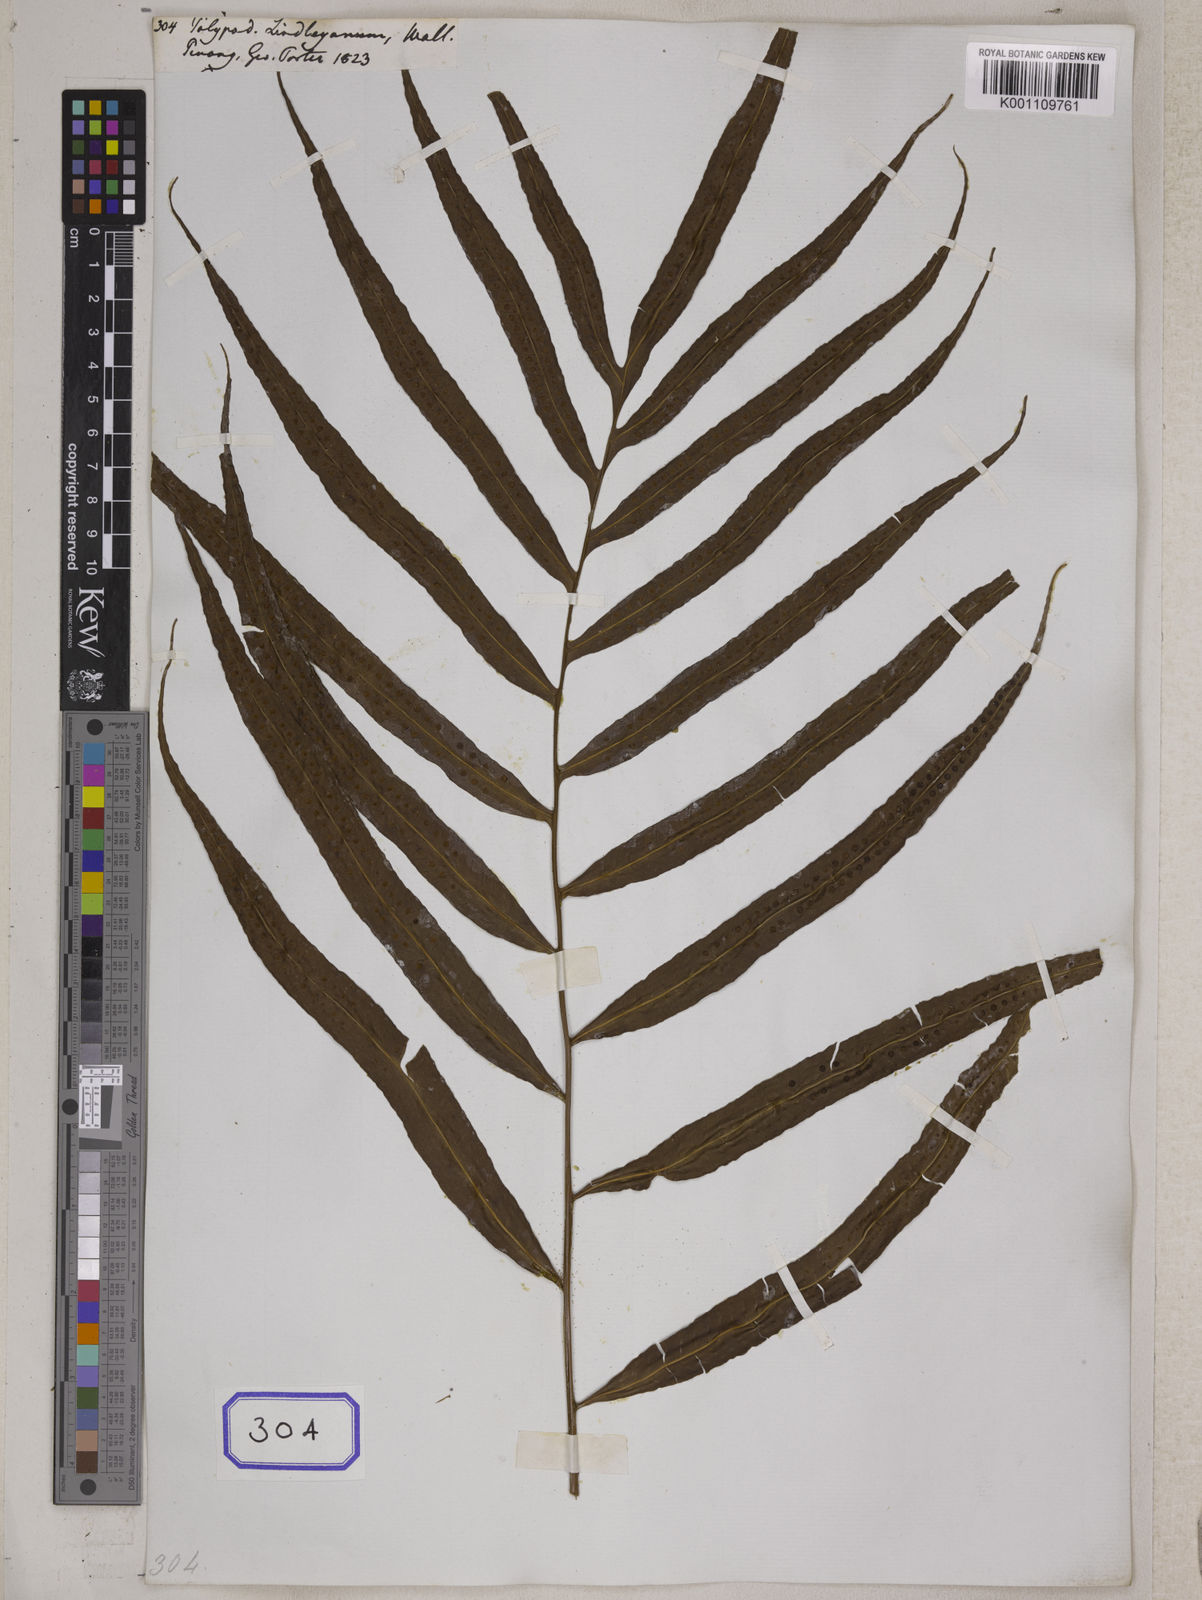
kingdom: Plantae
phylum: Tracheophyta
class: Polypodiopsida
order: Polypodiales
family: Polypodiaceae
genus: Selliguea
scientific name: Selliguea taeniata
